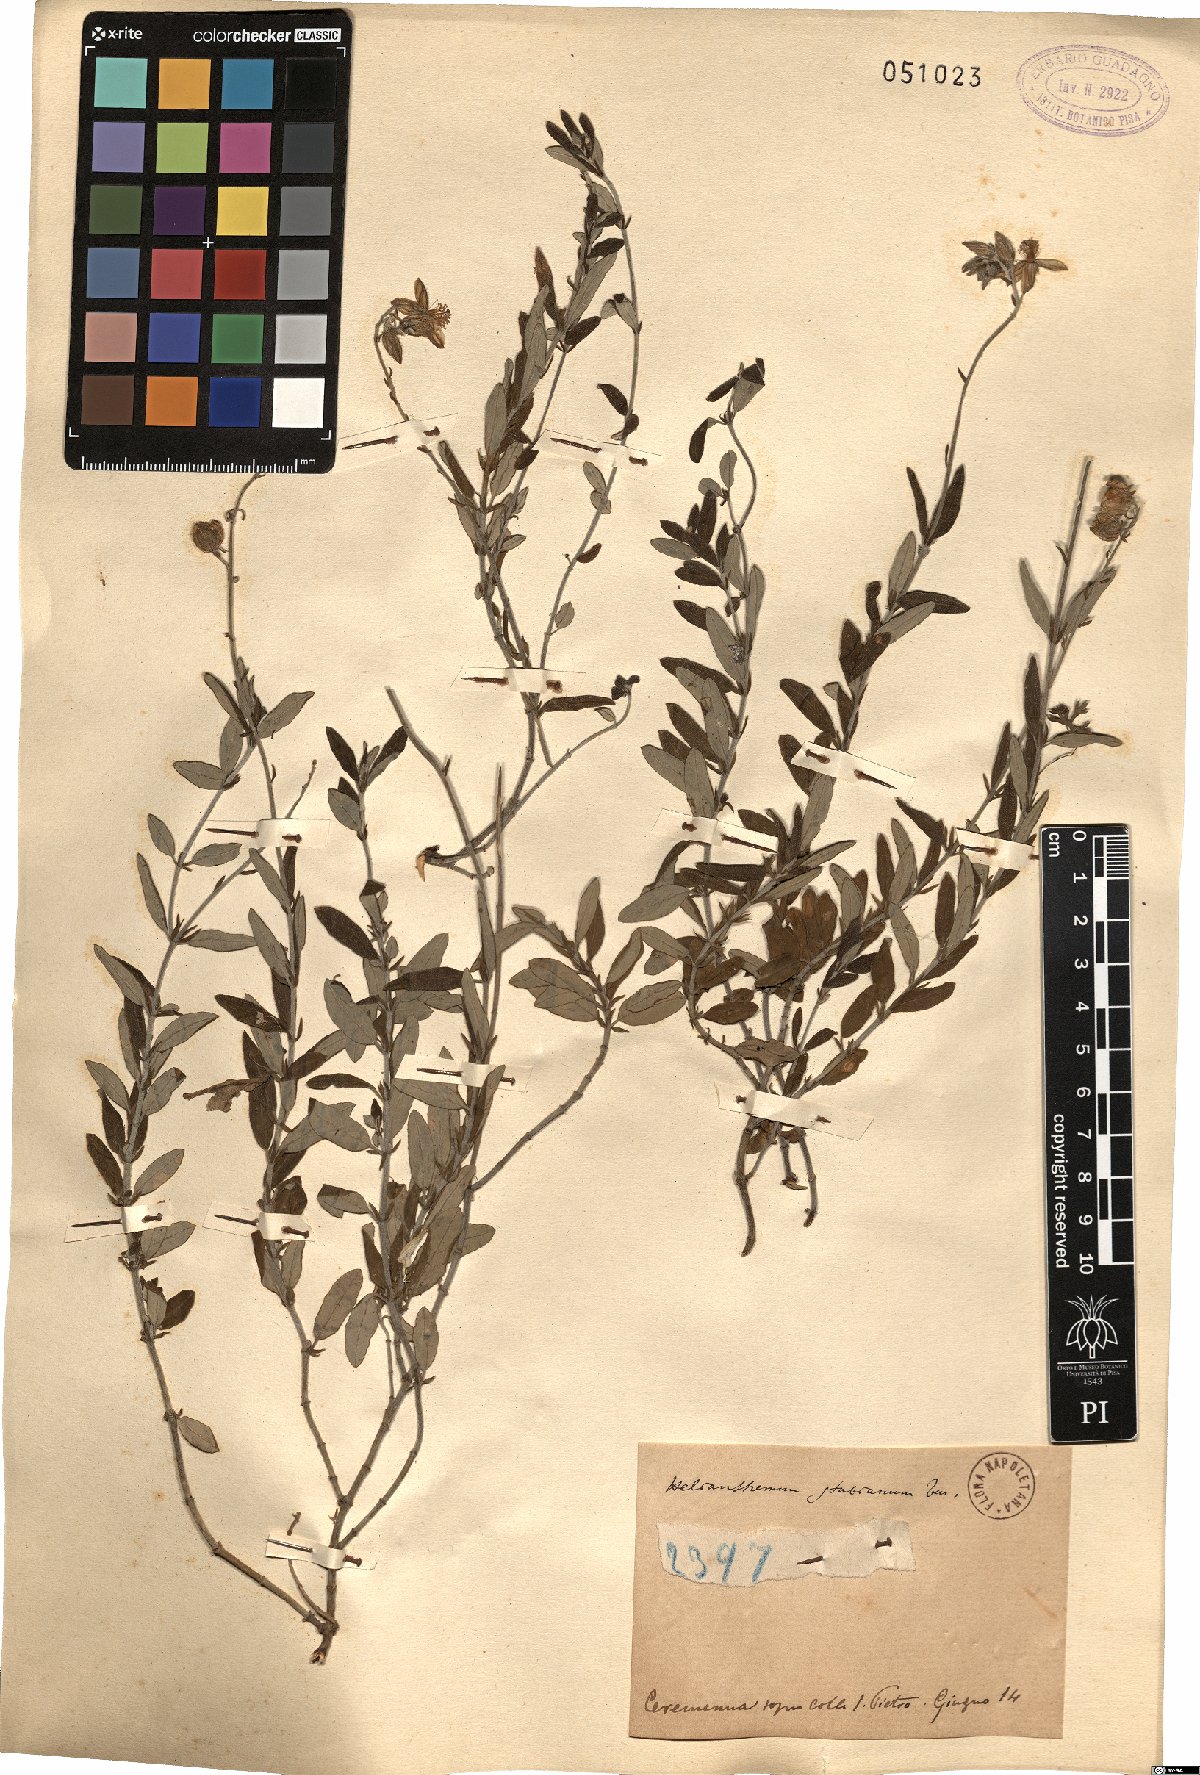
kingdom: Plantae
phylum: Tracheophyta
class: Magnoliopsida
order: Malvales
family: Cistaceae
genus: Helianthemum
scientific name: Helianthemum croceum
